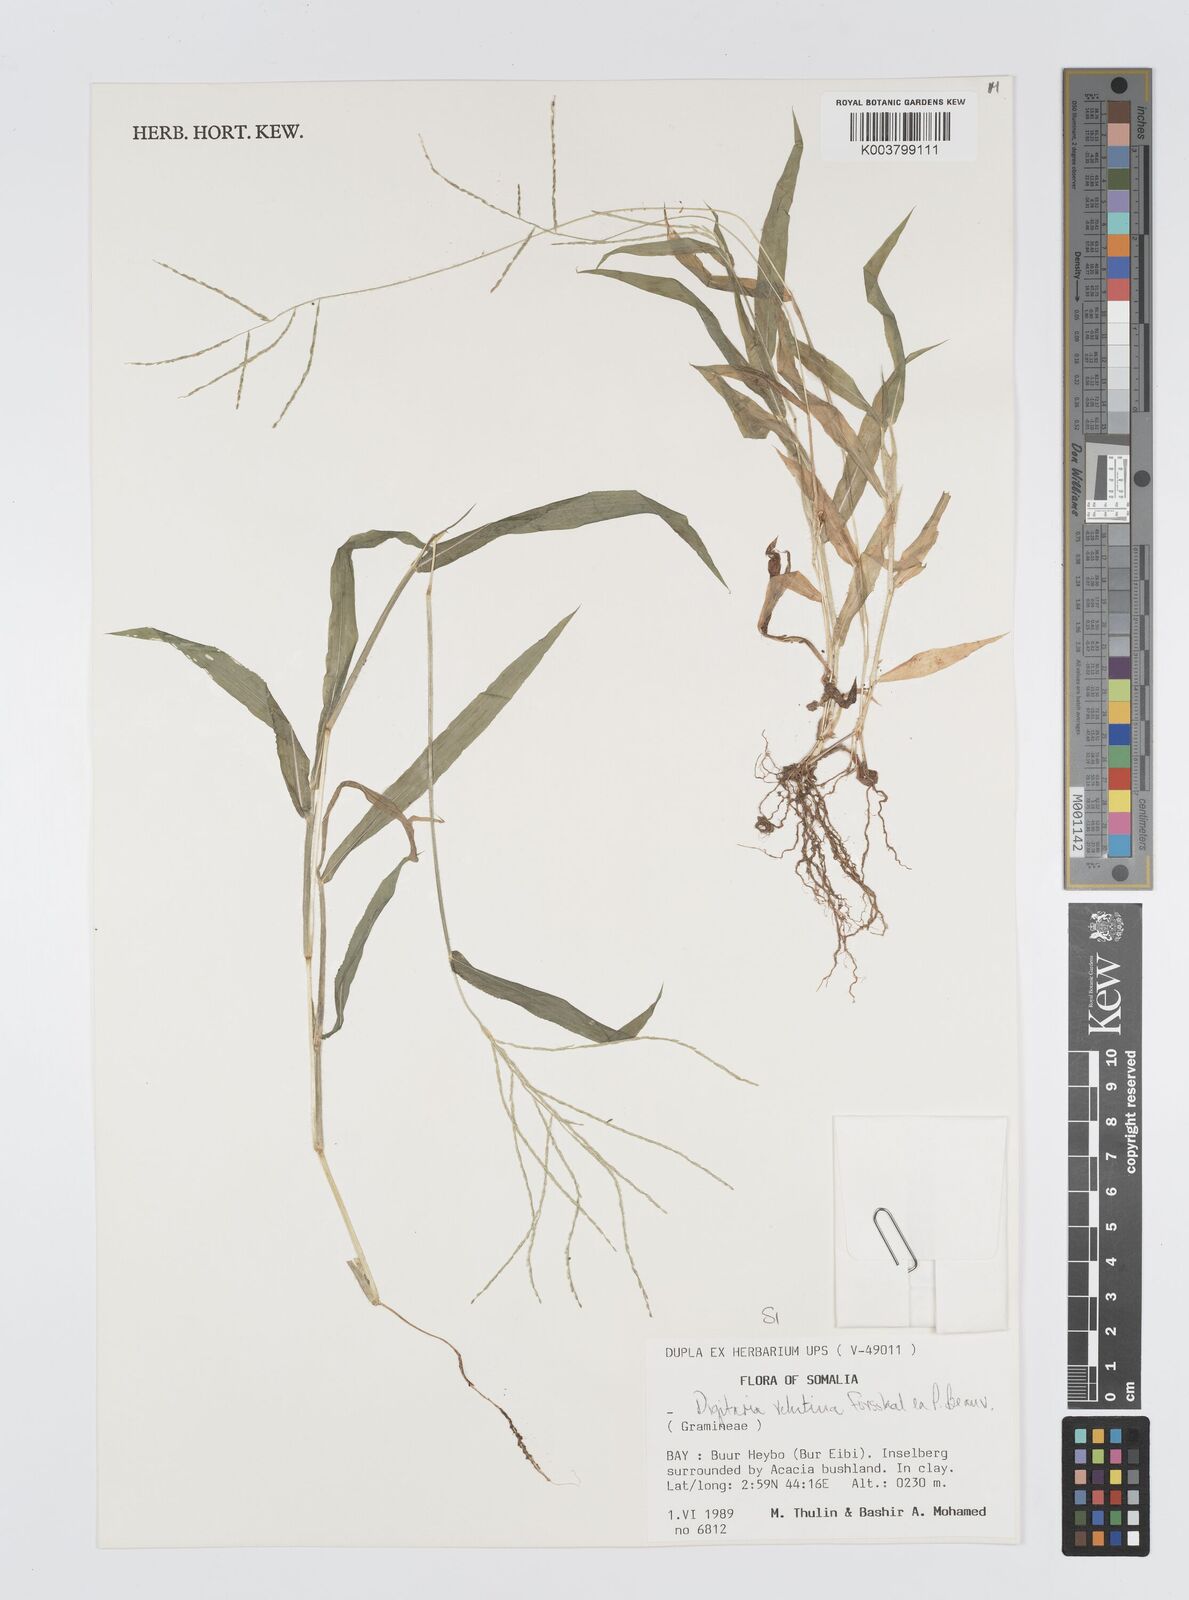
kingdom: Plantae
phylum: Tracheophyta
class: Liliopsida
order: Poales
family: Poaceae
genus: Digitaria
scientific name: Digitaria velutina
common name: Long-plume finger grass
